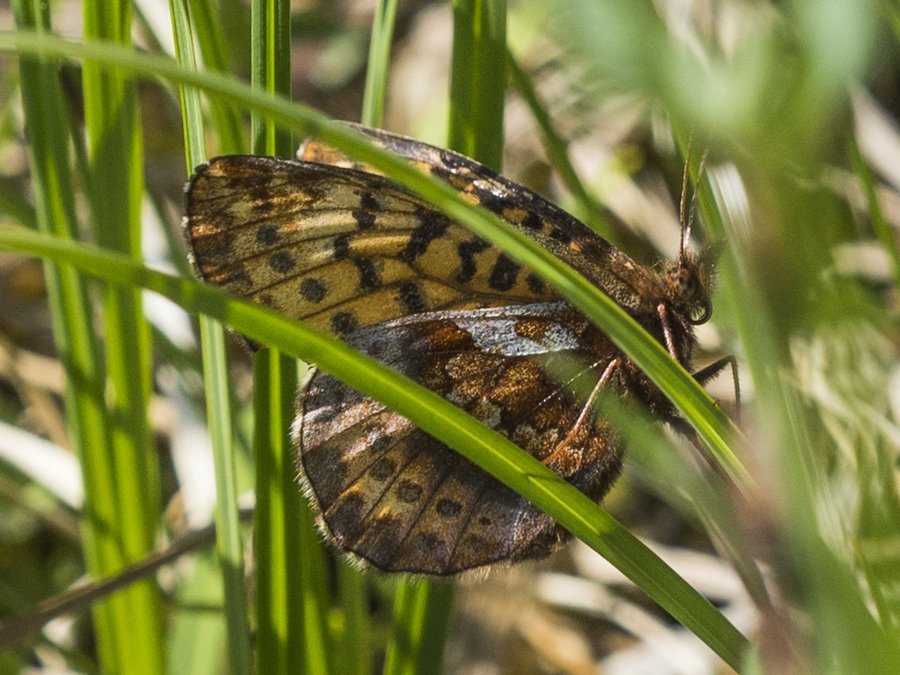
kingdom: Animalia
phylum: Arthropoda
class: Insecta
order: Lepidoptera
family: Nymphalidae
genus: Boloria
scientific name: Boloria frigga
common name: Frigga Fritillary
